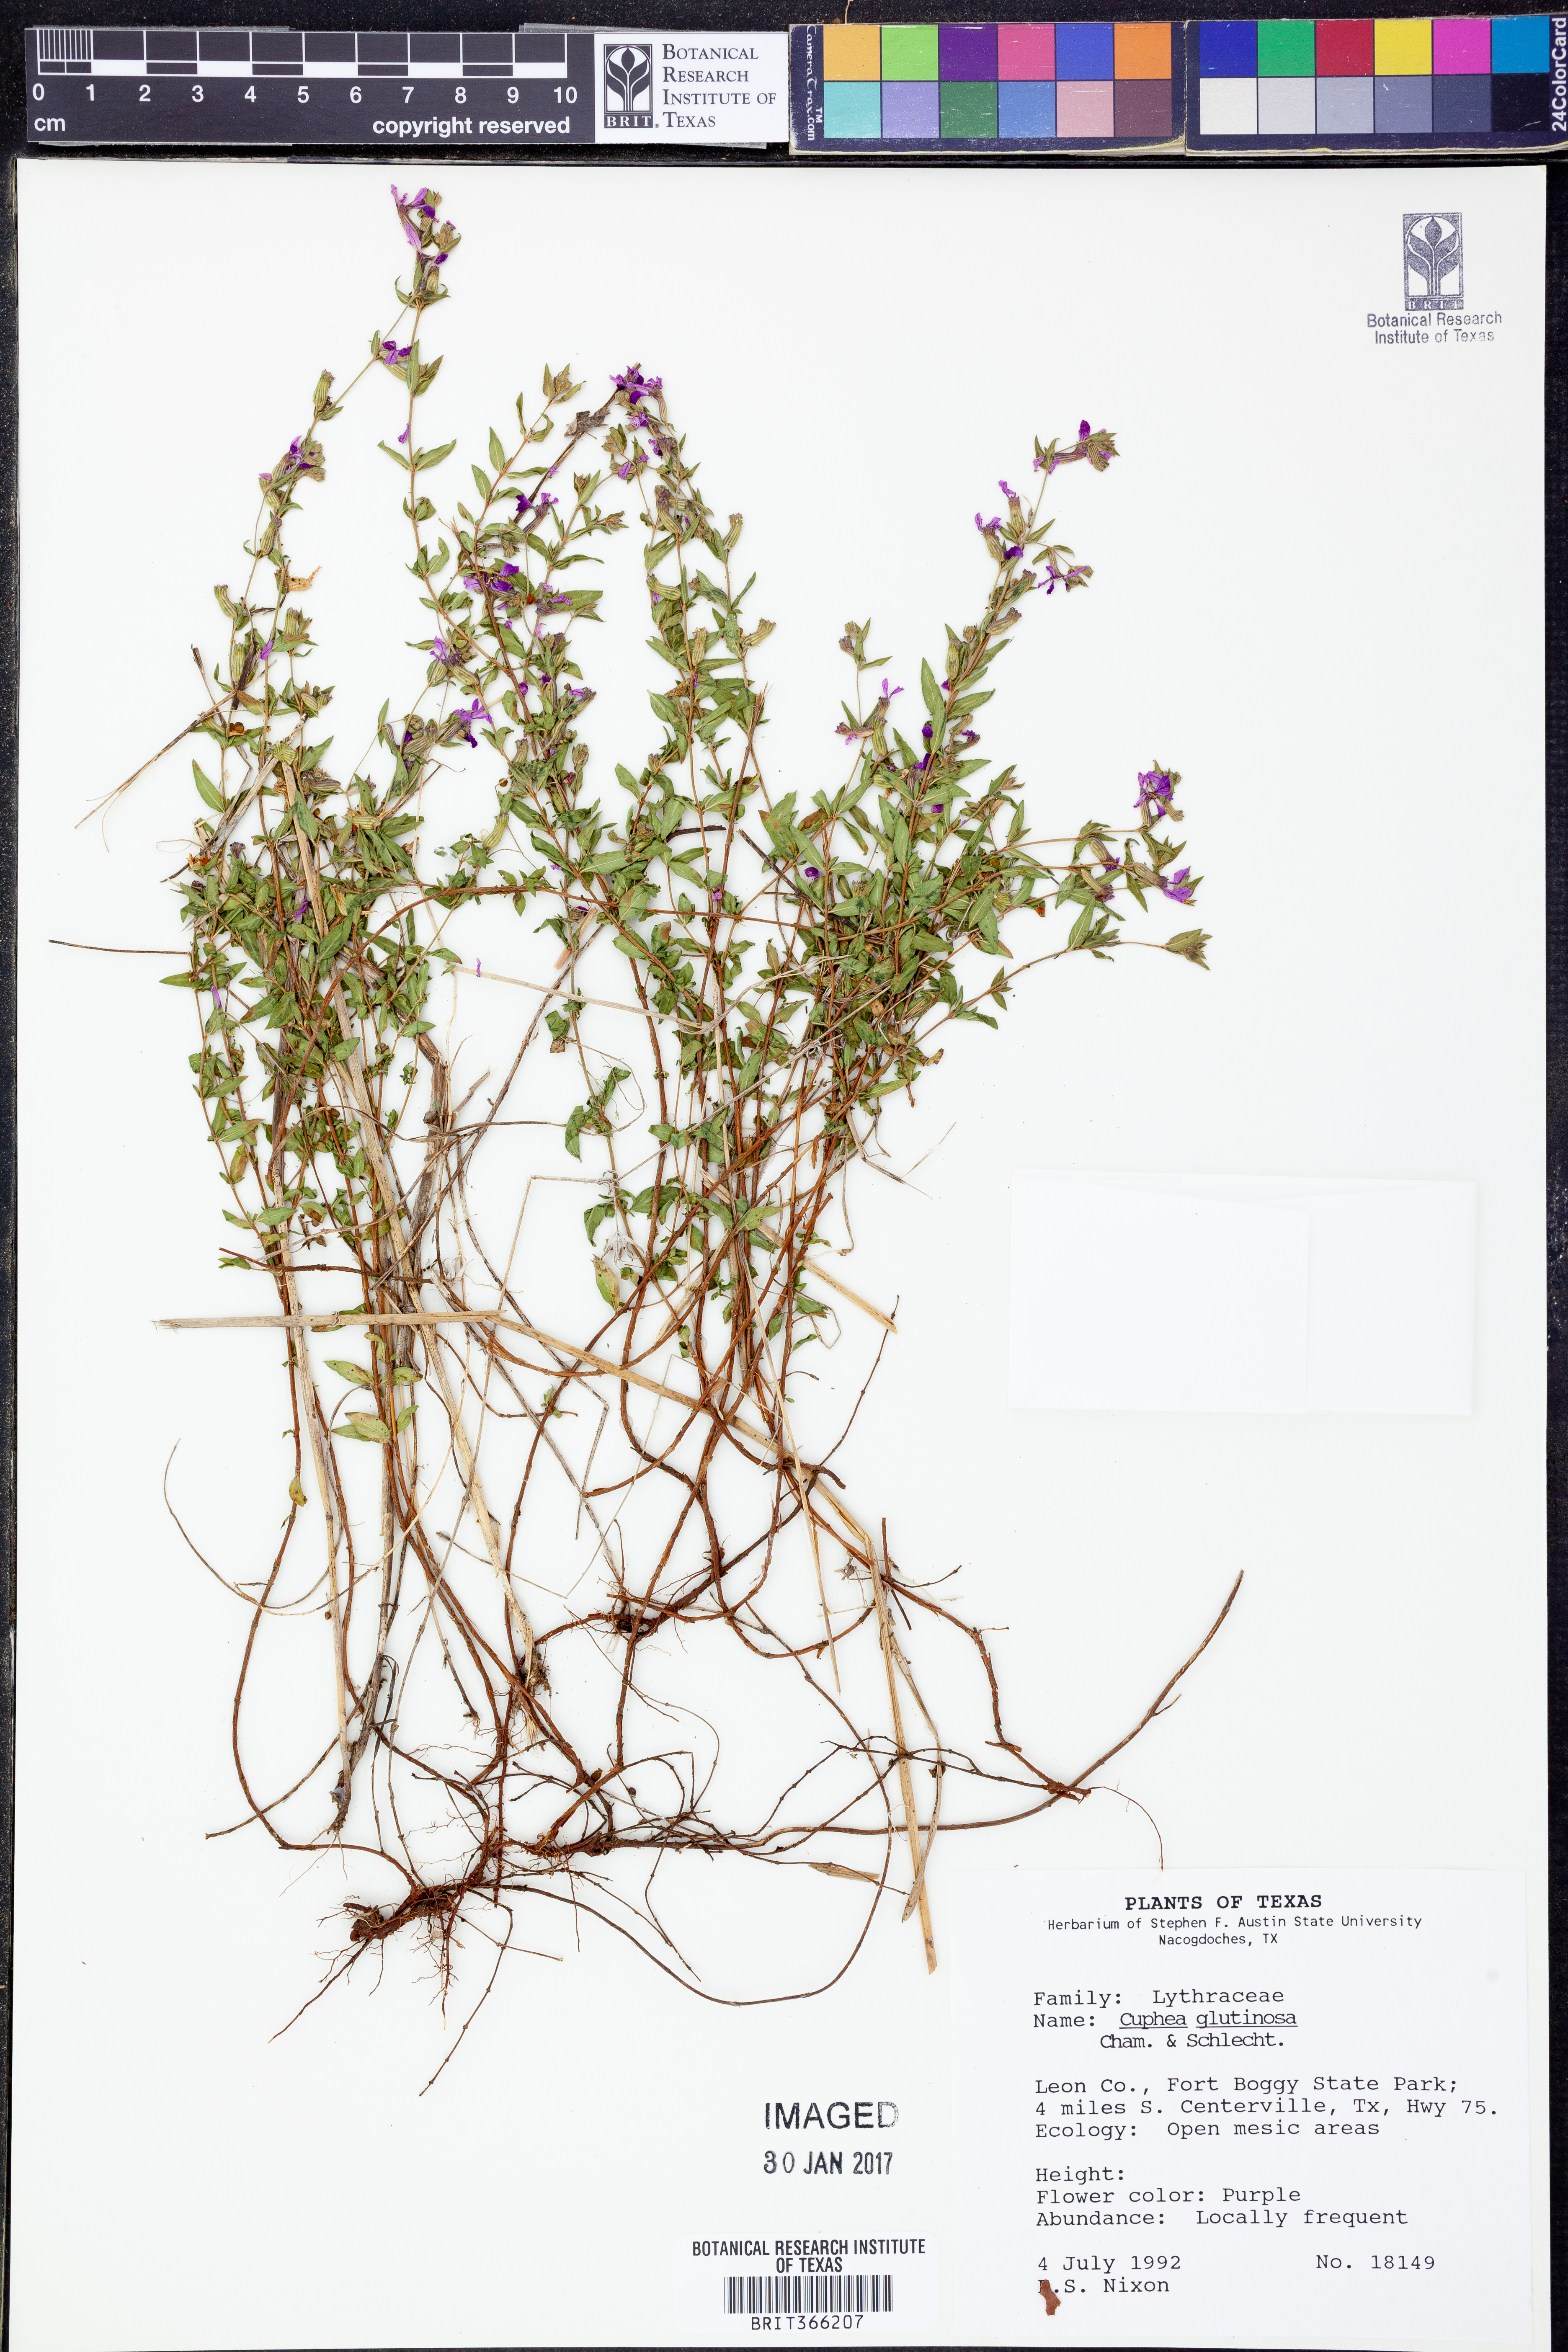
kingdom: Plantae
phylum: Tracheophyta
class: Magnoliopsida
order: Myrtales
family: Lythraceae
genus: Cuphea
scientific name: Cuphea glutinosa
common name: Sticky waxweed
